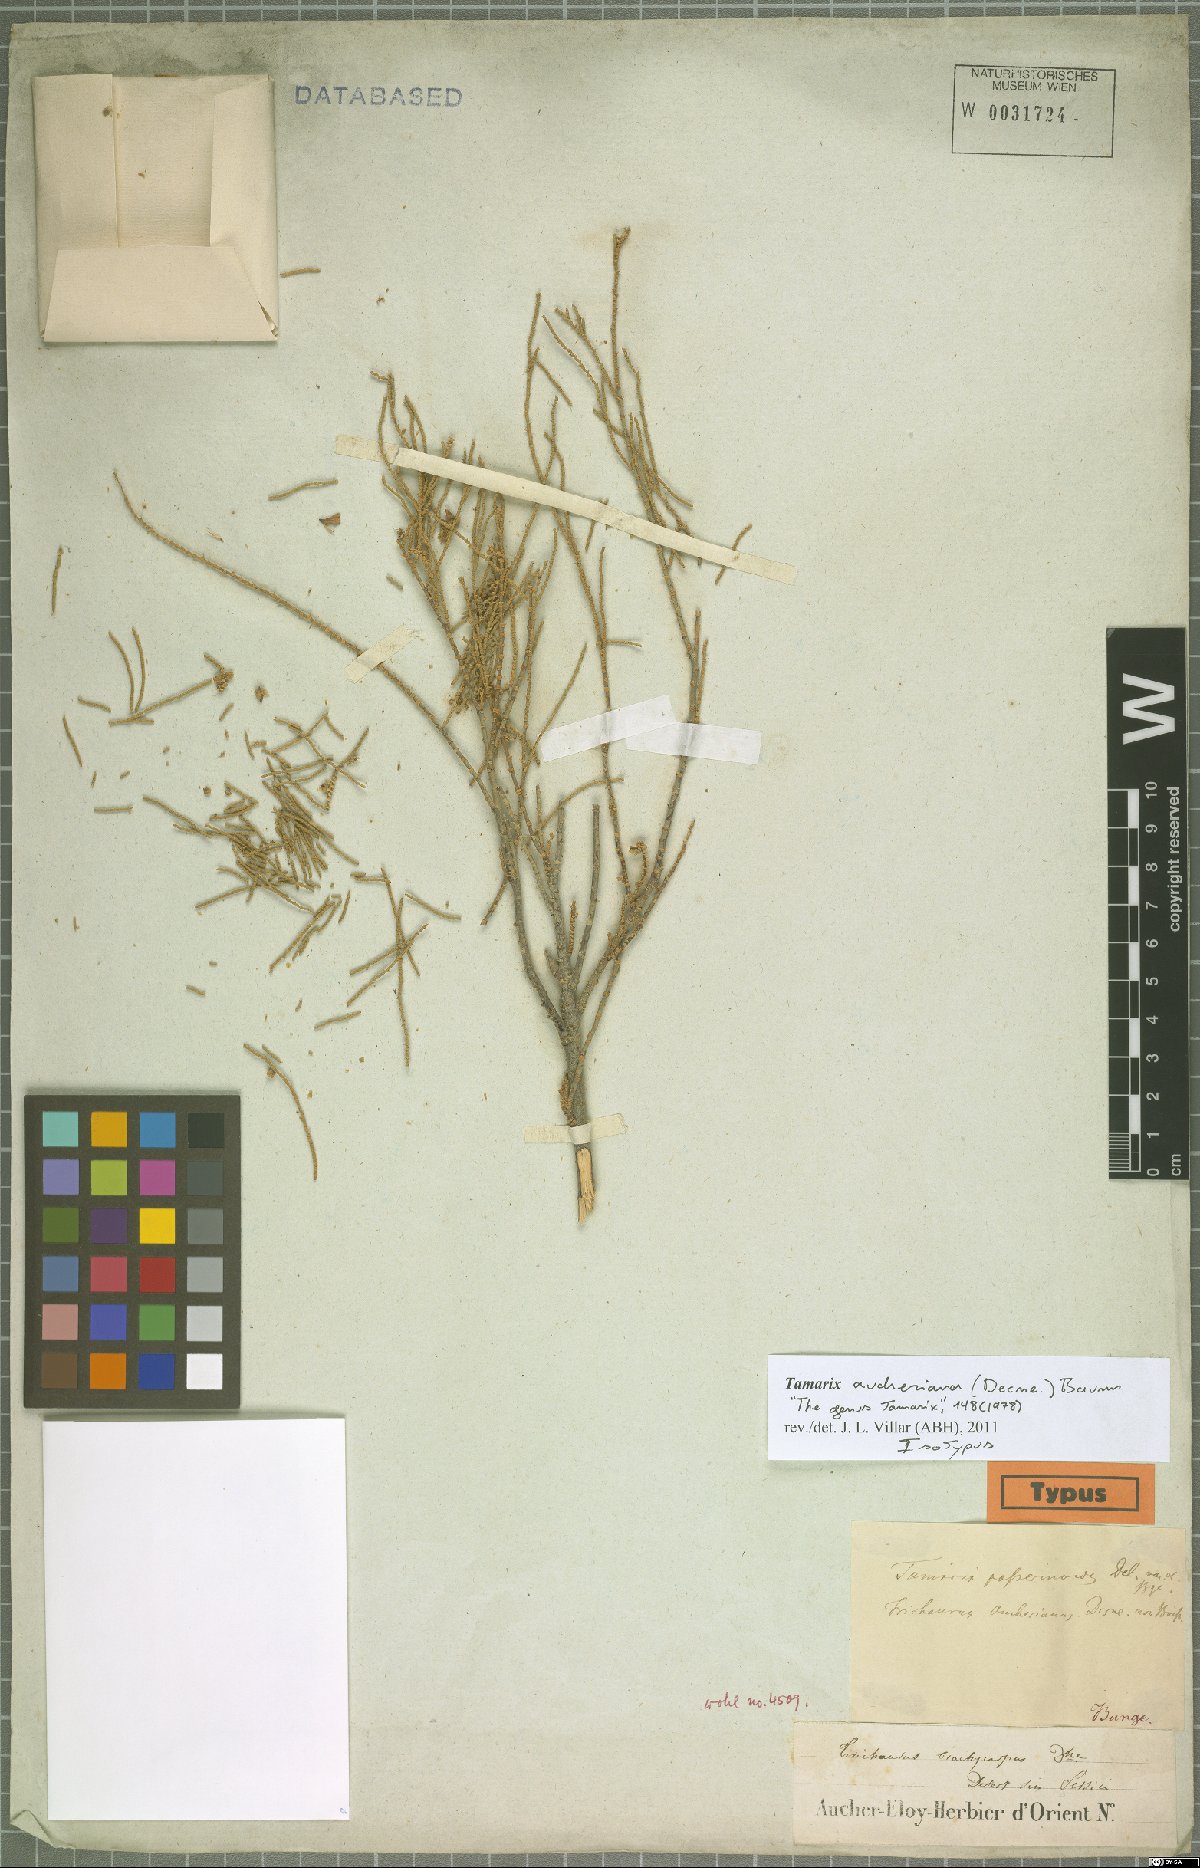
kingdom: Plantae
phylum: Tracheophyta
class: Magnoliopsida
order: Caryophyllales
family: Tamaricaceae
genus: Tamarix
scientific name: Tamarix aucheriana
